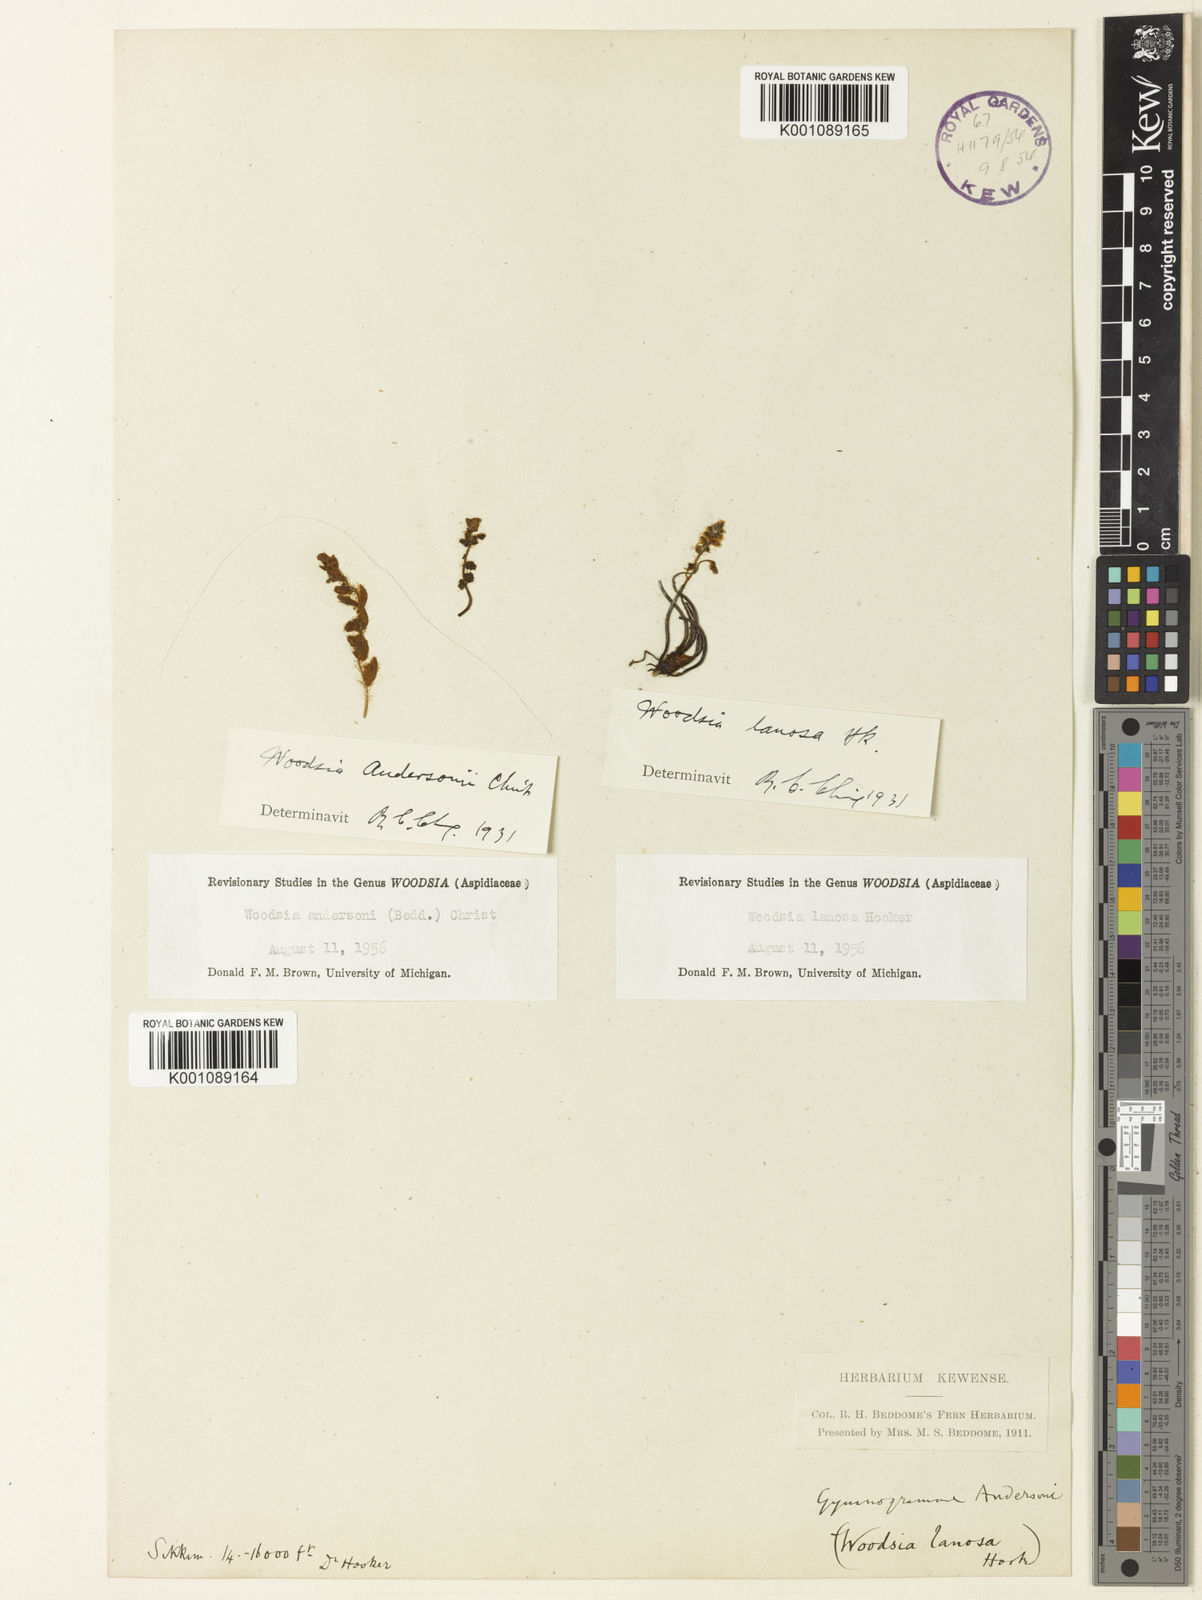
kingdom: Plantae
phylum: Tracheophyta
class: Polypodiopsida
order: Polypodiales
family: Woodsiaceae
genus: Woodsia
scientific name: Woodsia andersonii
